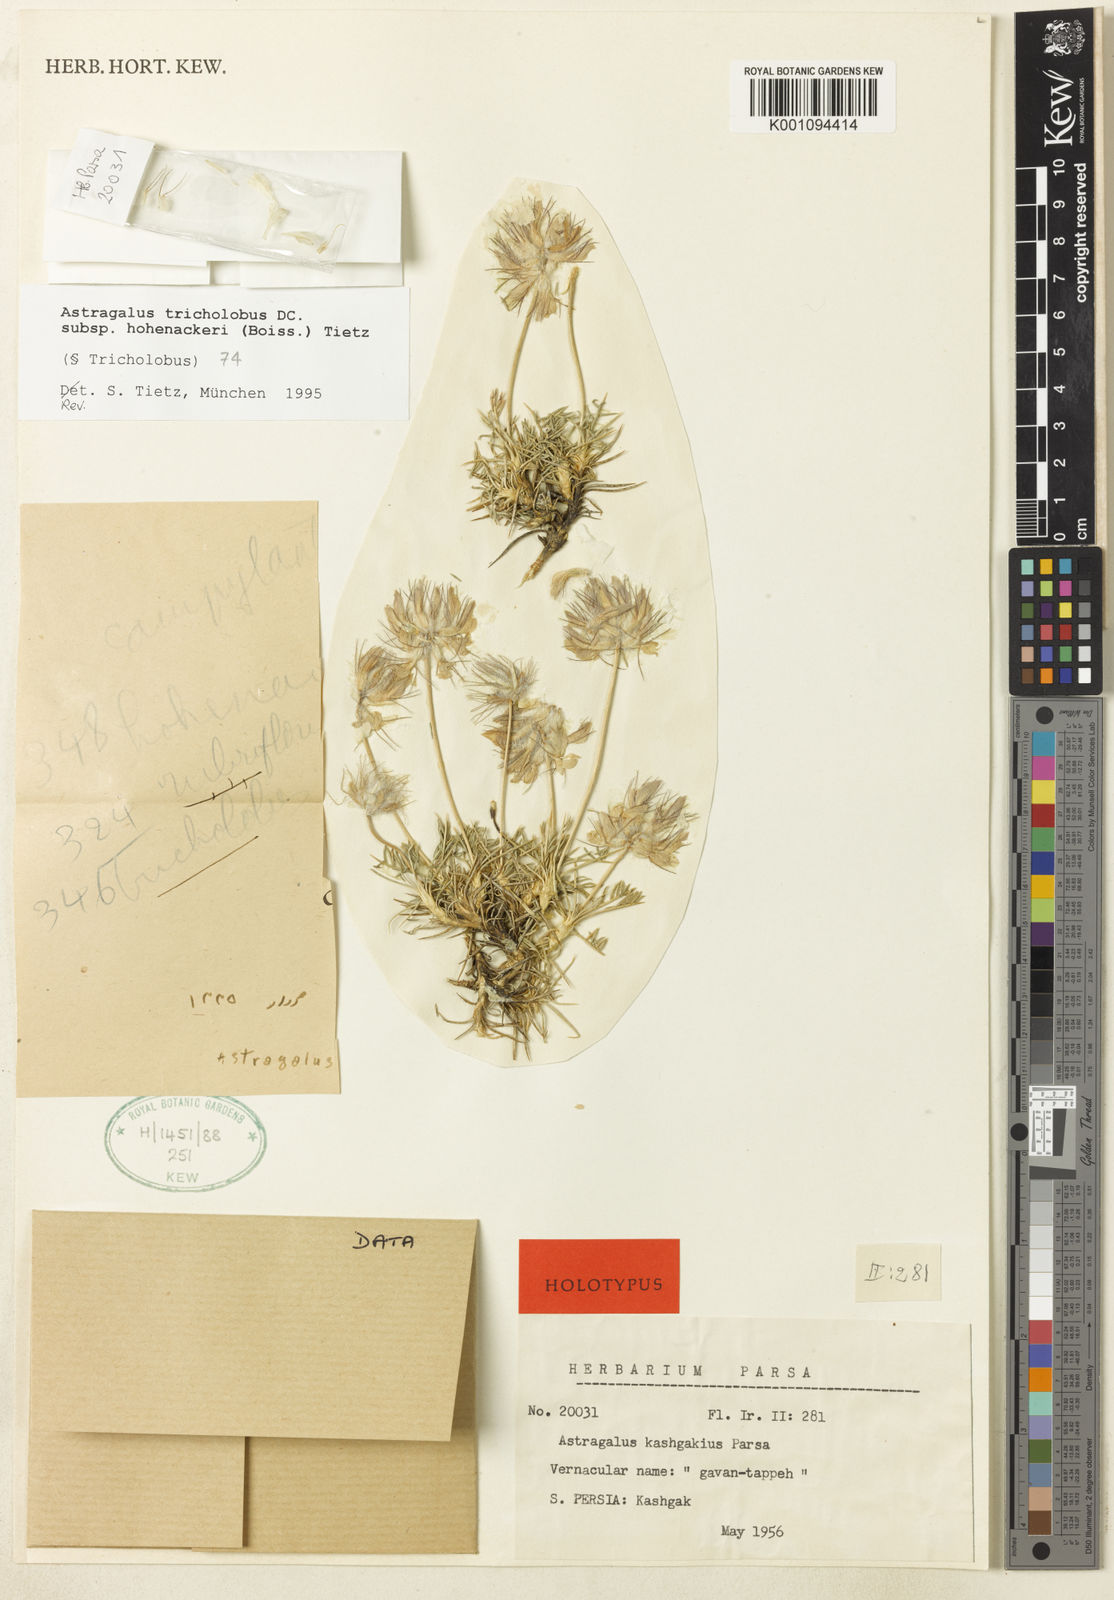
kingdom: Plantae
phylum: Tracheophyta
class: Magnoliopsida
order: Fabales
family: Fabaceae
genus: Astragalus
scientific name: Astragalus hohenackeri
